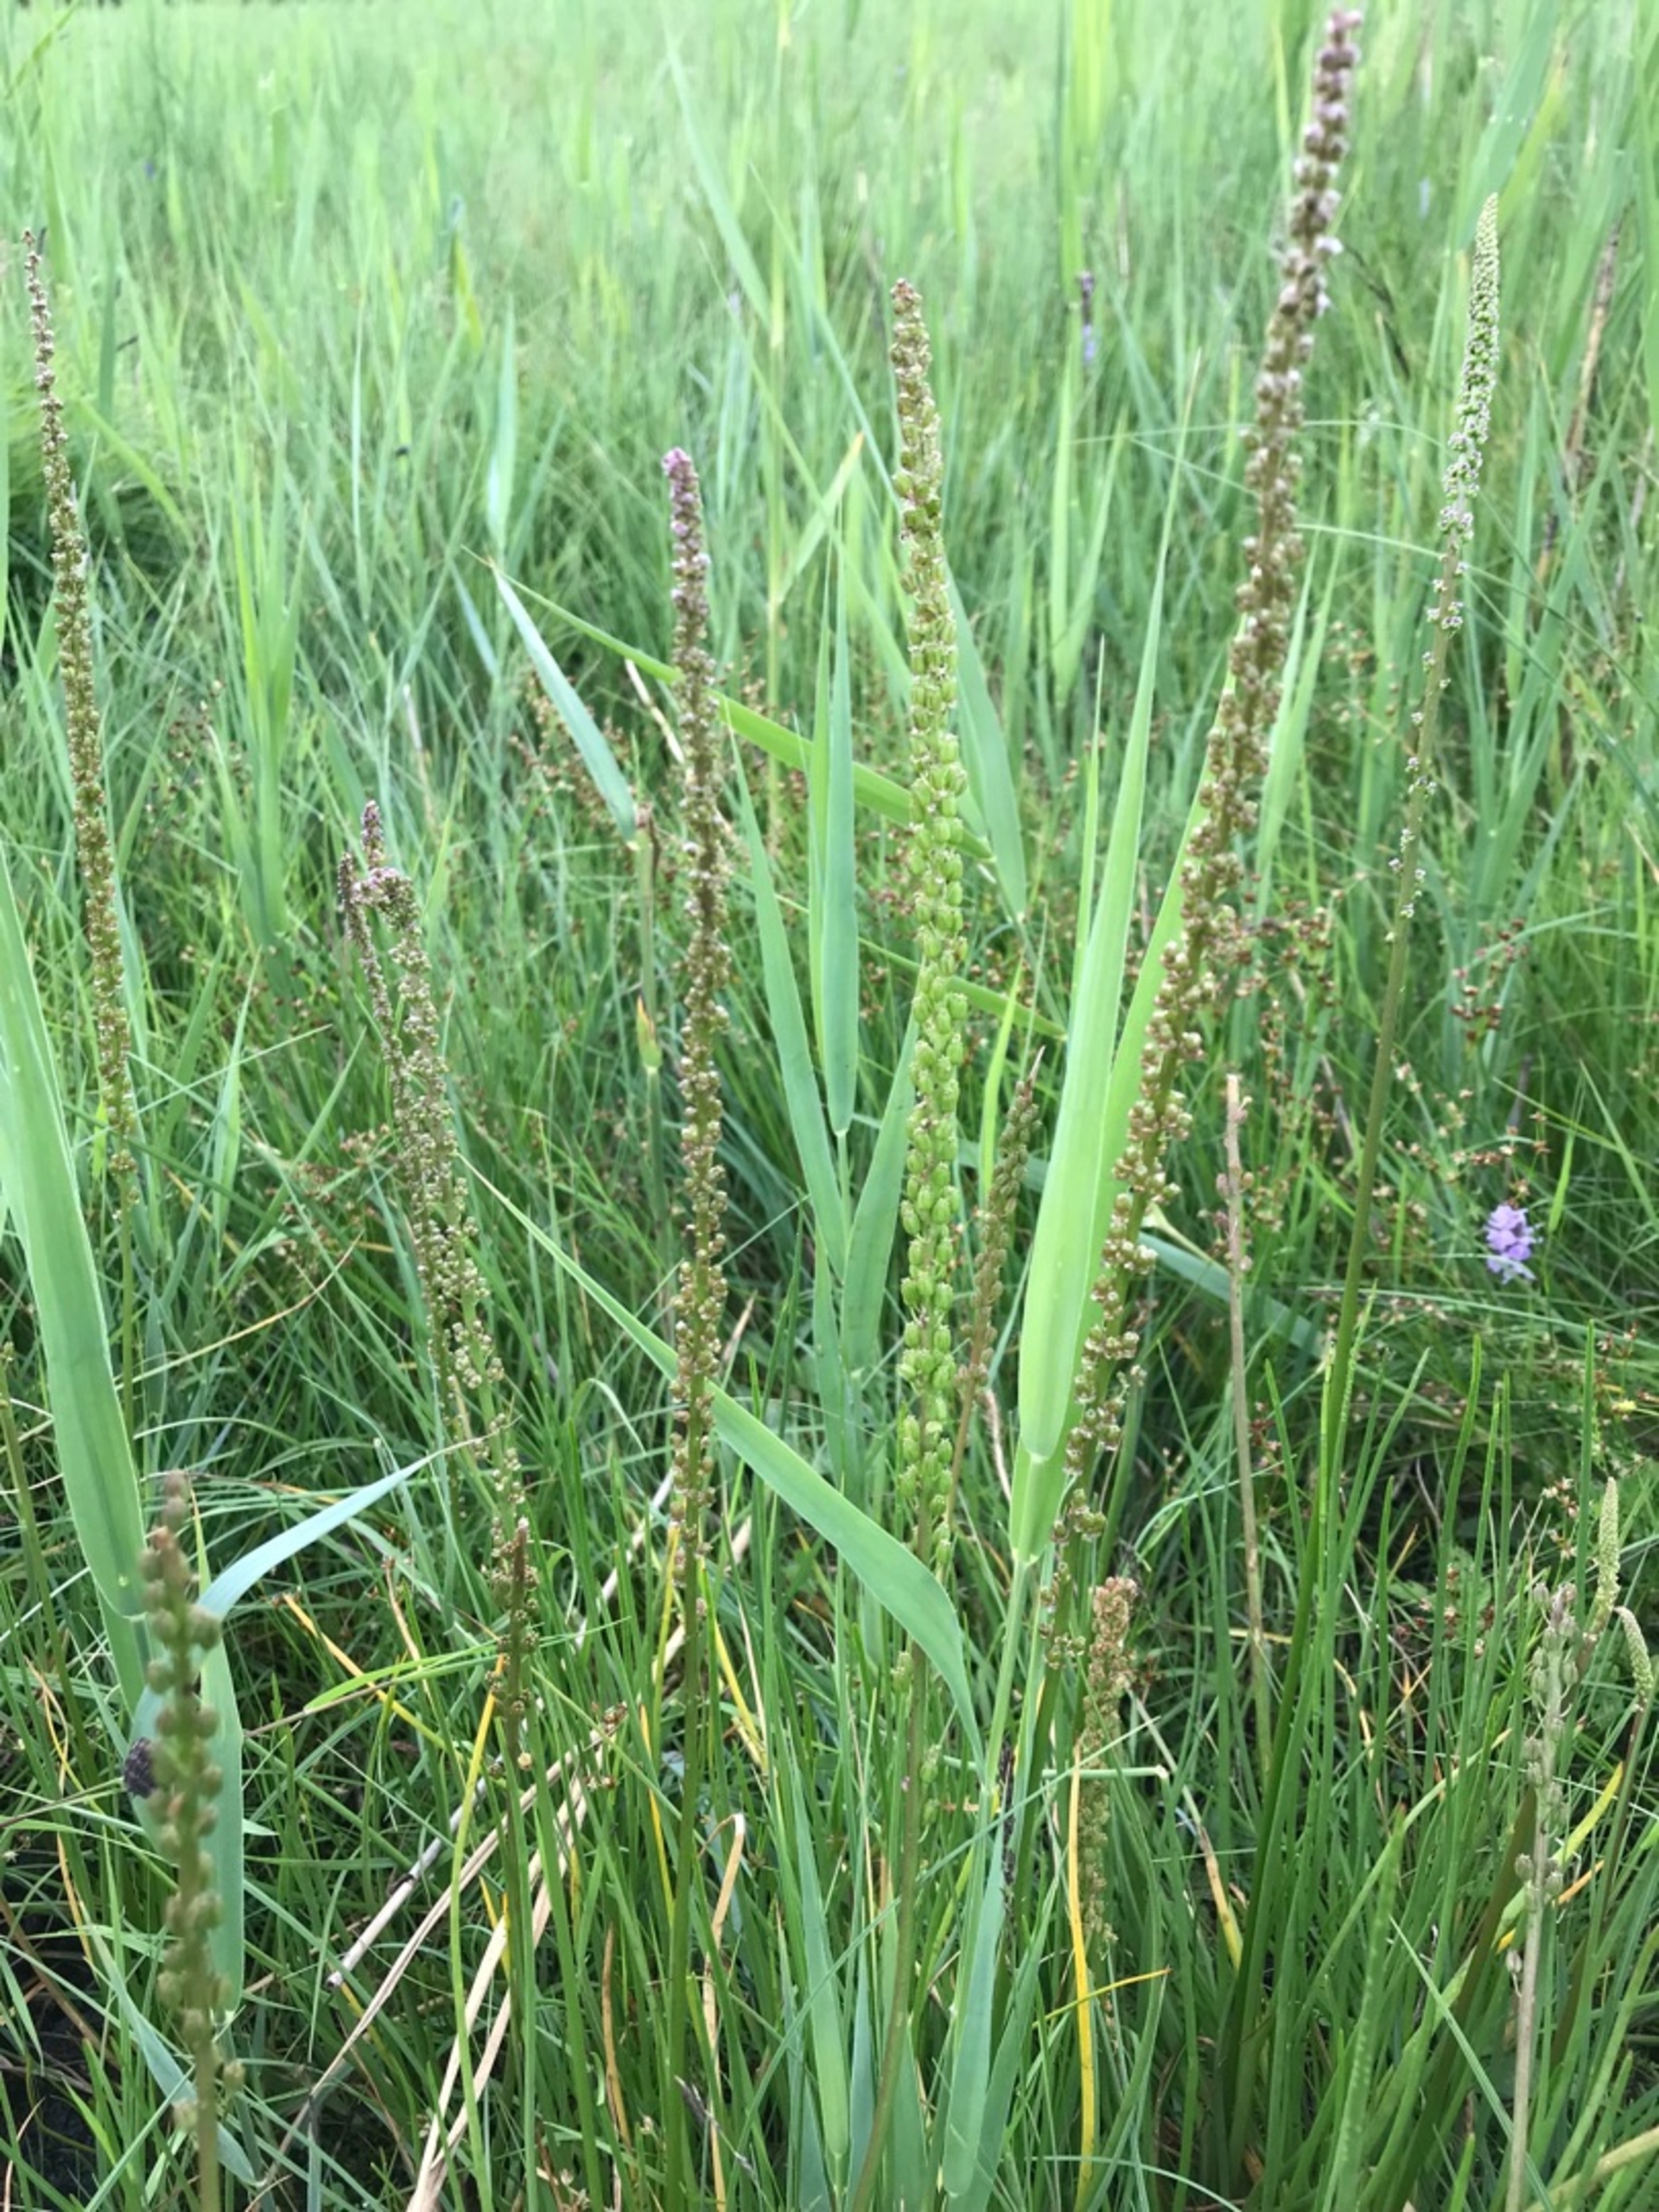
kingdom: Plantae
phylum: Tracheophyta
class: Liliopsida
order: Alismatales
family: Juncaginaceae
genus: Triglochin
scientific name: Triglochin maritima
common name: Strand-trehage
